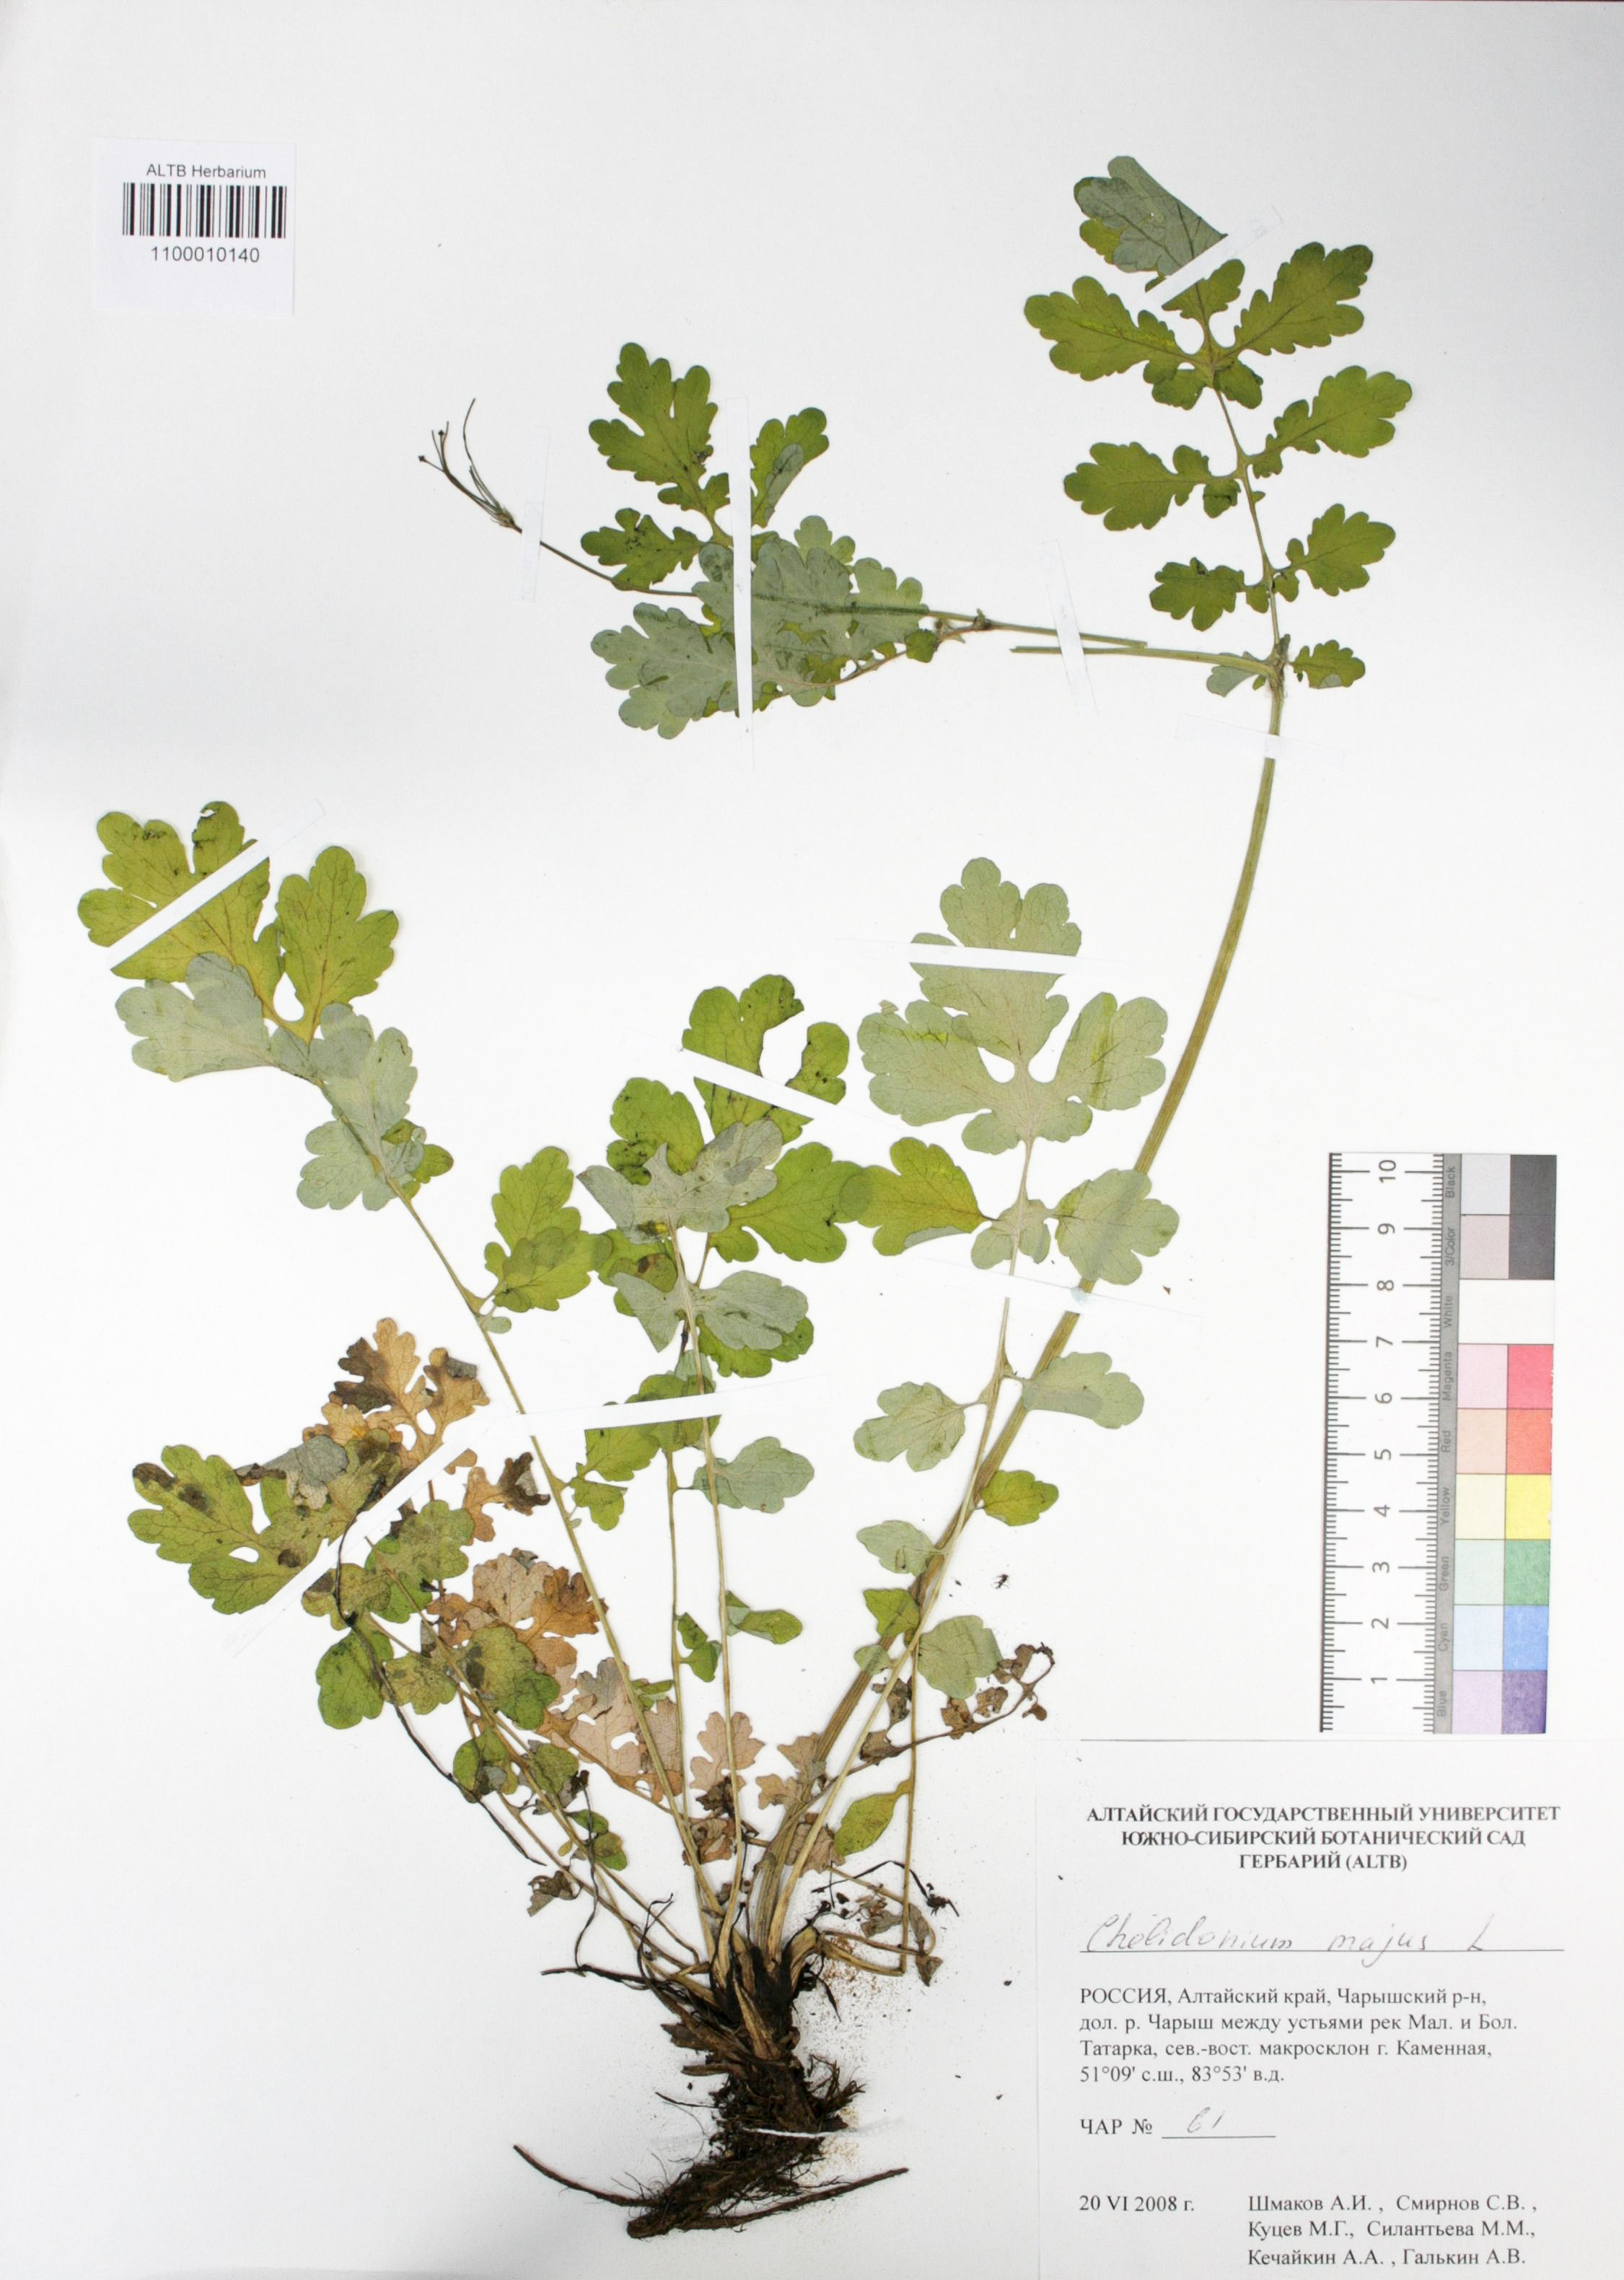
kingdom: Plantae
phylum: Tracheophyta
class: Magnoliopsida
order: Ranunculales
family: Papaveraceae
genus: Chelidonium
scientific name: Chelidonium majus
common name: Greater celandine
